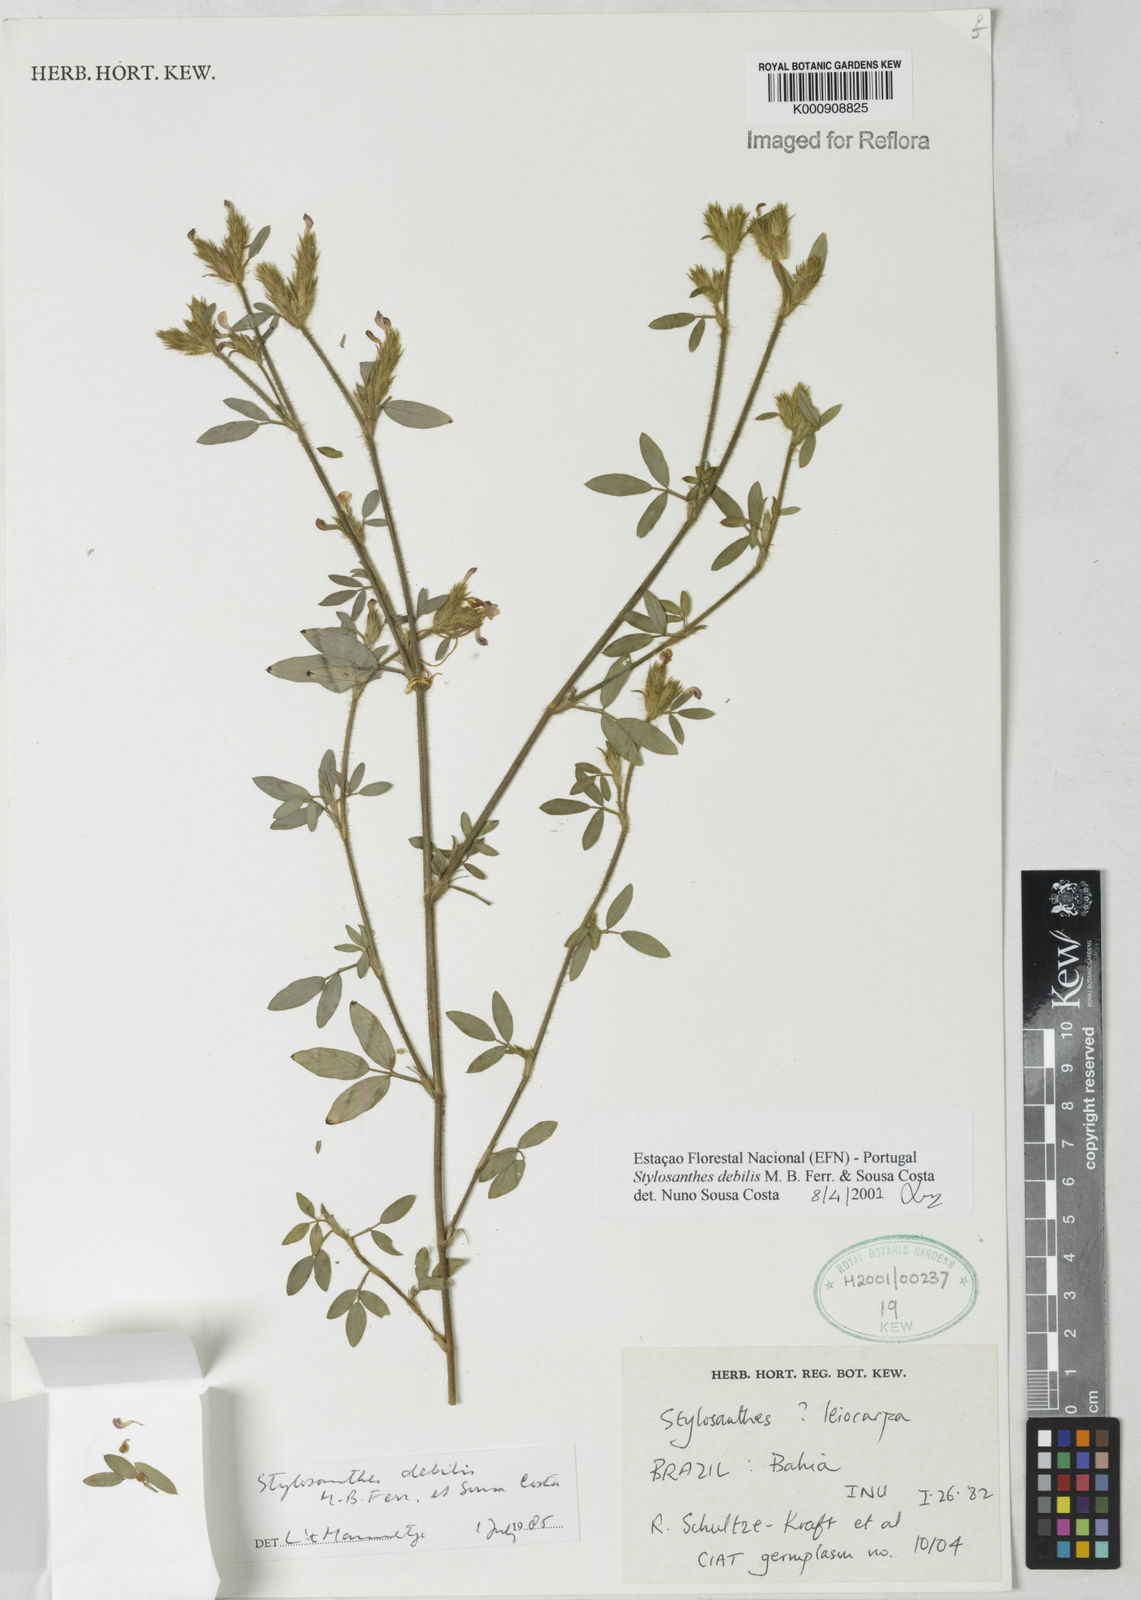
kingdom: Plantae
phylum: Tracheophyta
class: Magnoliopsida
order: Fabales
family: Fabaceae
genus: Stylosanthes
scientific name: Stylosanthes viscosa
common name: Viscid pencil-flower
